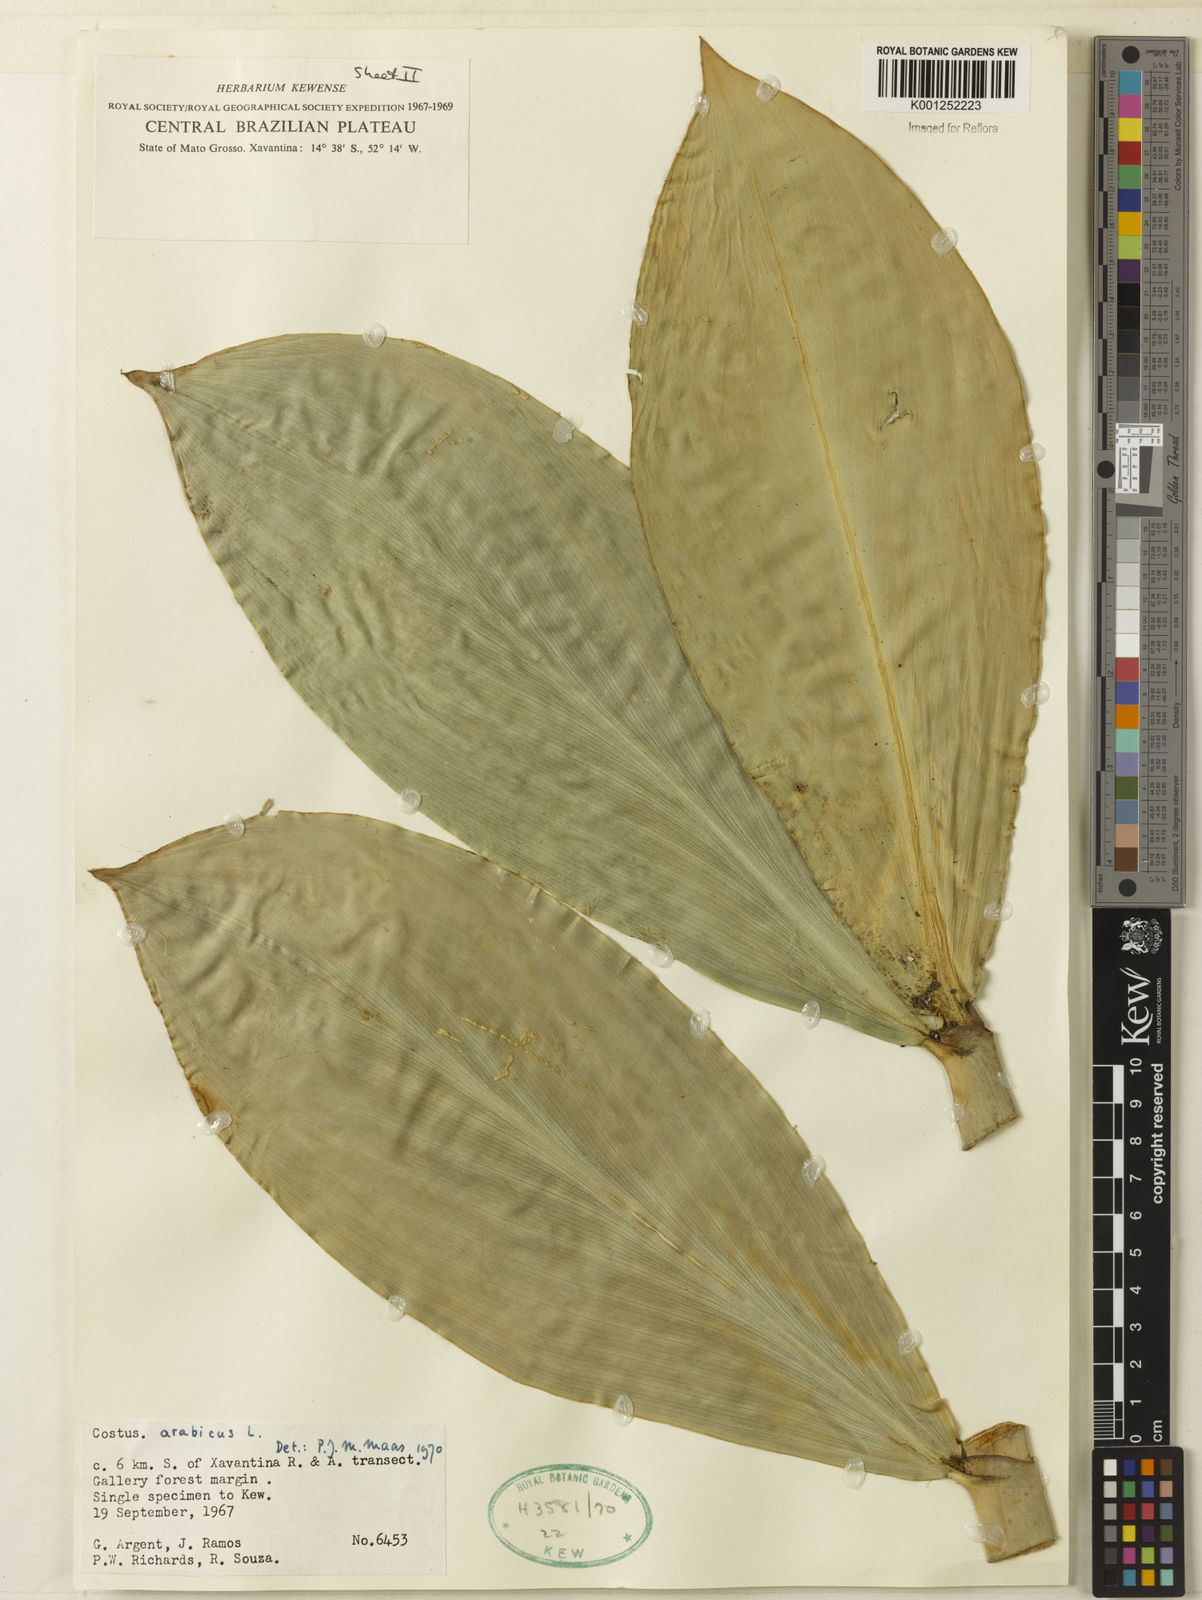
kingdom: Plantae
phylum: Tracheophyta
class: Liliopsida
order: Zingiberales
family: Costaceae
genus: Costus
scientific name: Costus arabicus
